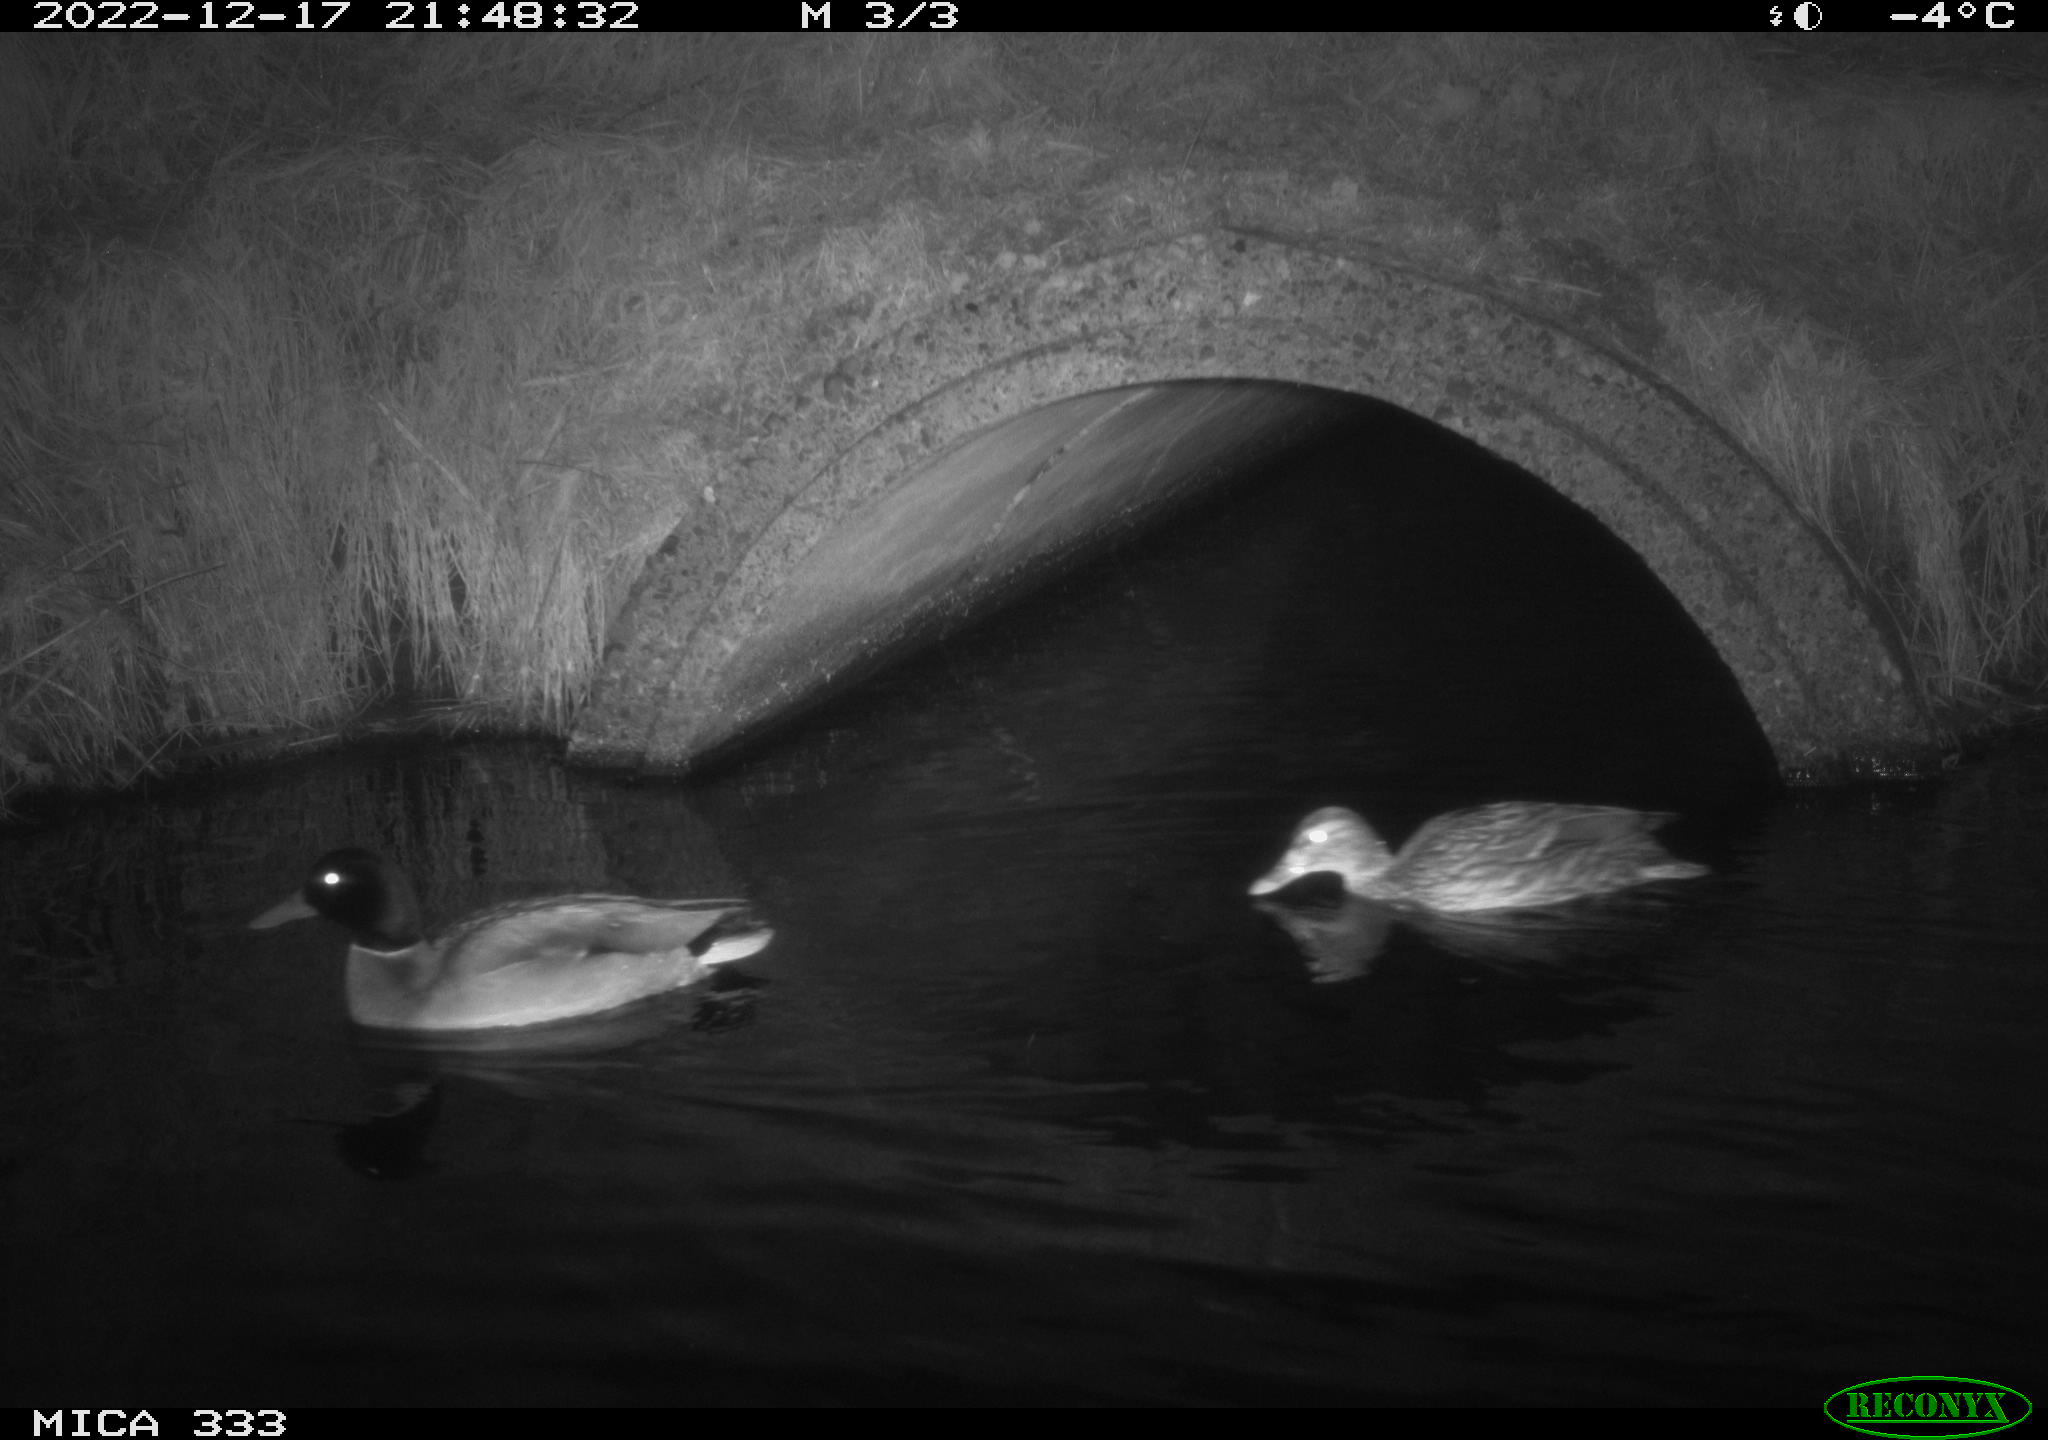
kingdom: Animalia
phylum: Chordata
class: Aves
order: Anseriformes
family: Anatidae
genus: Anas
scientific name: Anas
